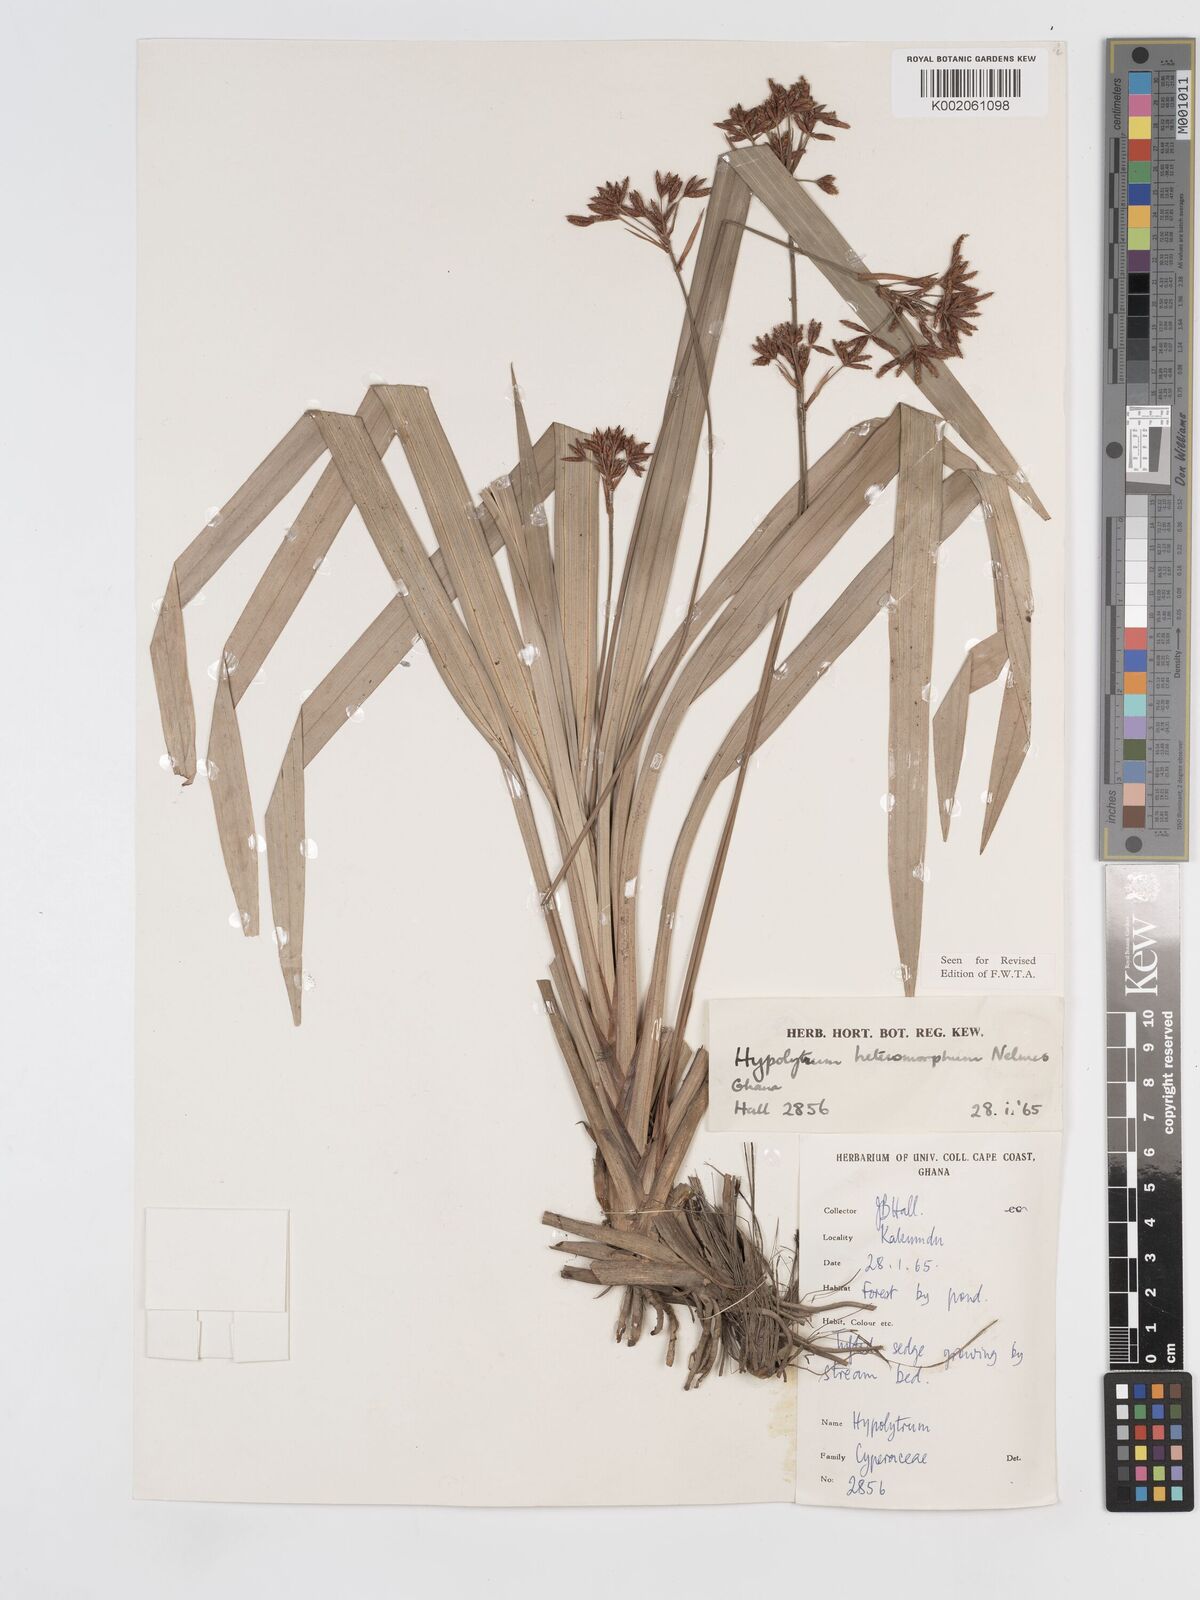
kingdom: Plantae
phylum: Tracheophyta
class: Liliopsida
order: Poales
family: Cyperaceae
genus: Hypolytrum
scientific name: Hypolytrum heteromorphum
